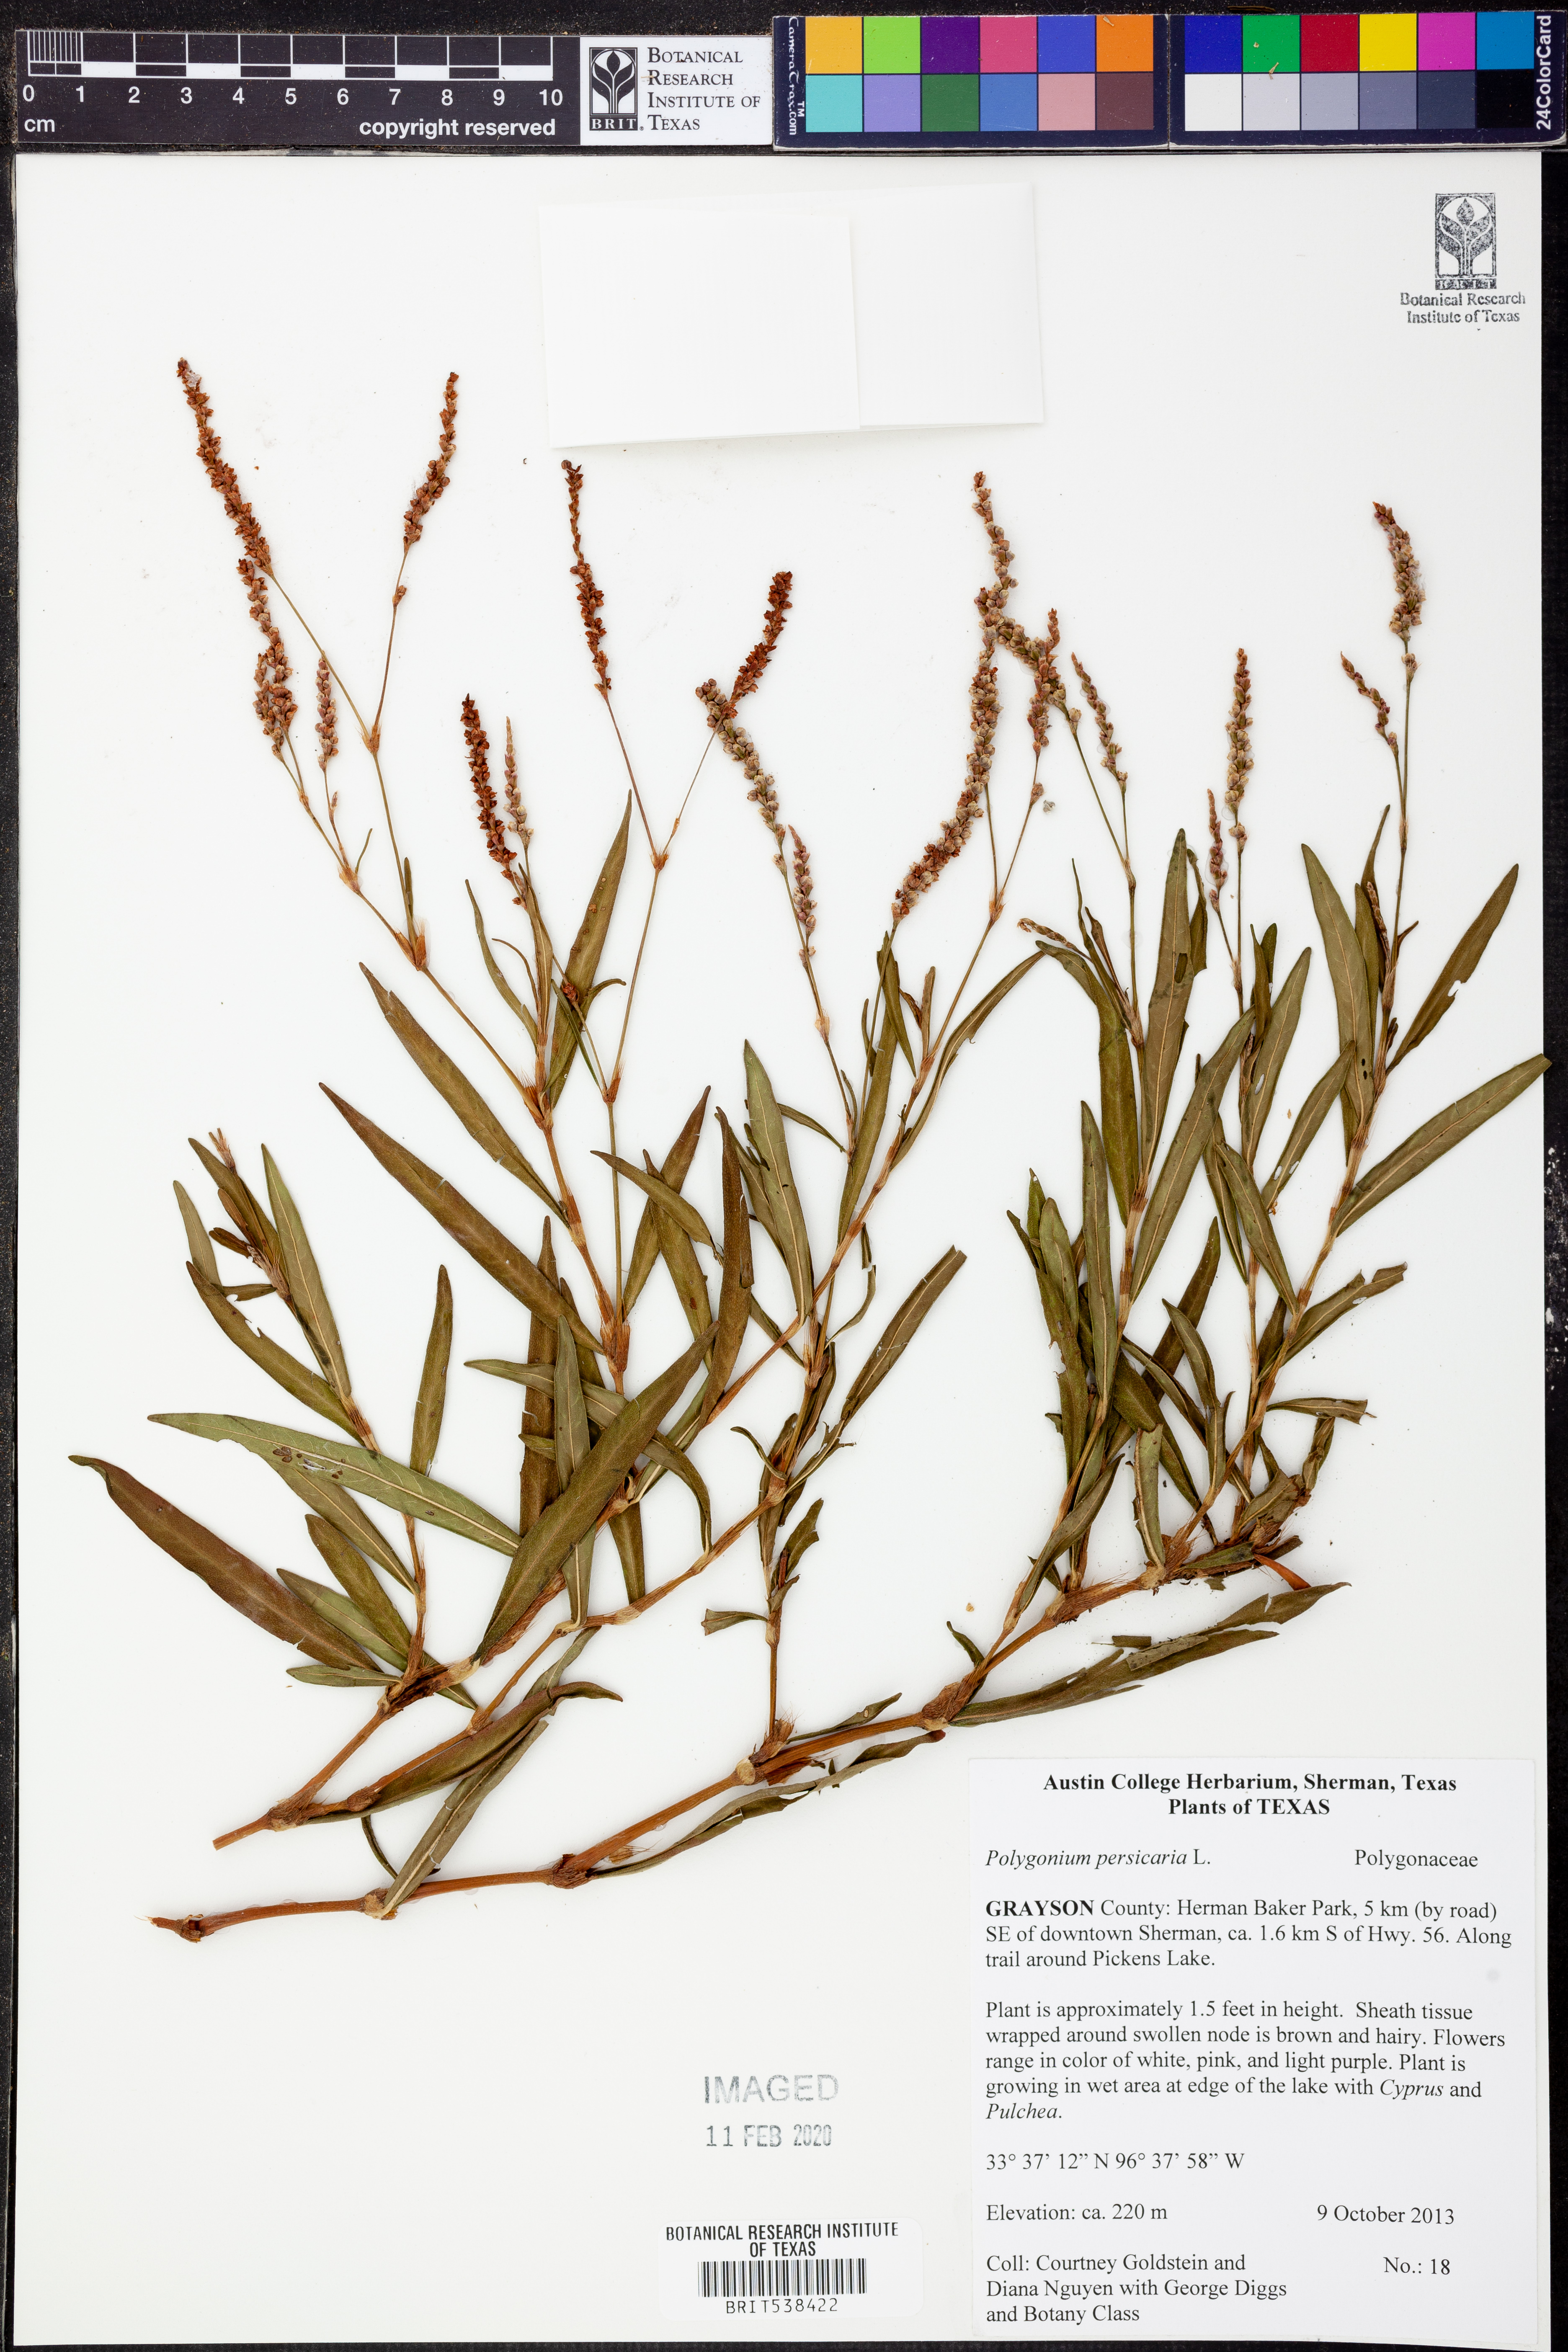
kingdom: Plantae
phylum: Tracheophyta
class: Magnoliopsida
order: Caryophyllales
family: Polygonaceae
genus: Persicaria
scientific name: Persicaria maculosa
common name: Redshank
